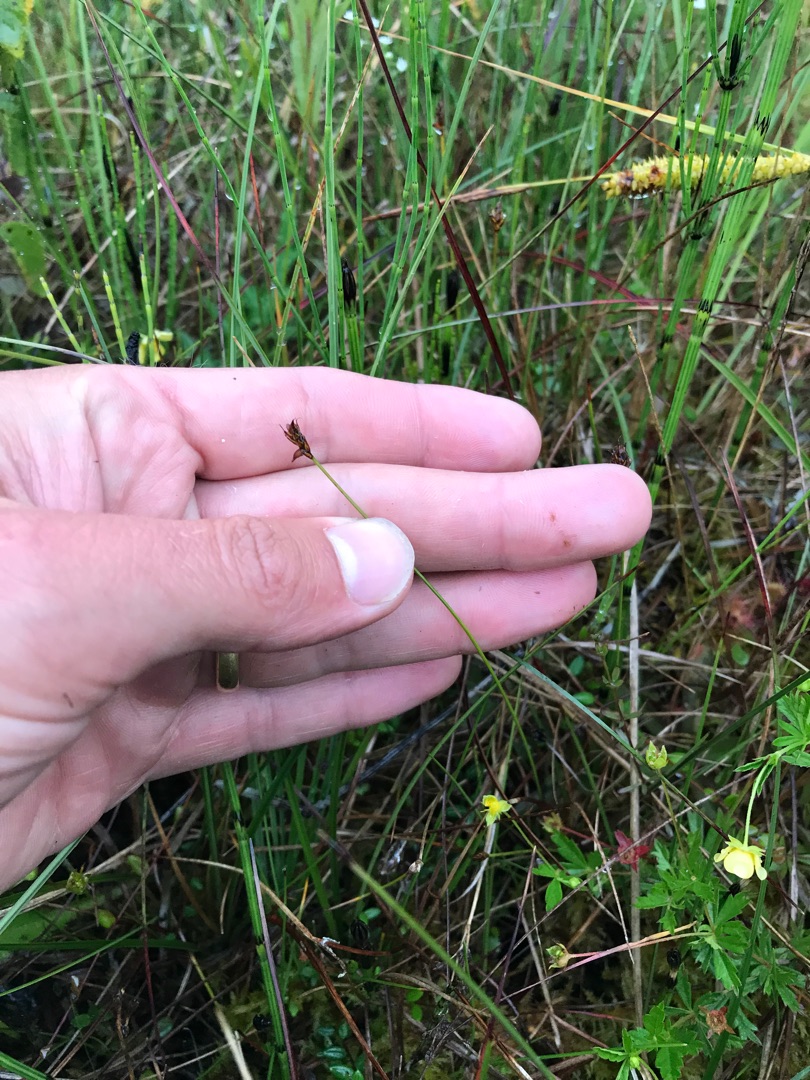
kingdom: Plantae
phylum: Tracheophyta
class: Liliopsida
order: Poales
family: Cyperaceae
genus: Carex
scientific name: Carex dioica
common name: Tvebo star
